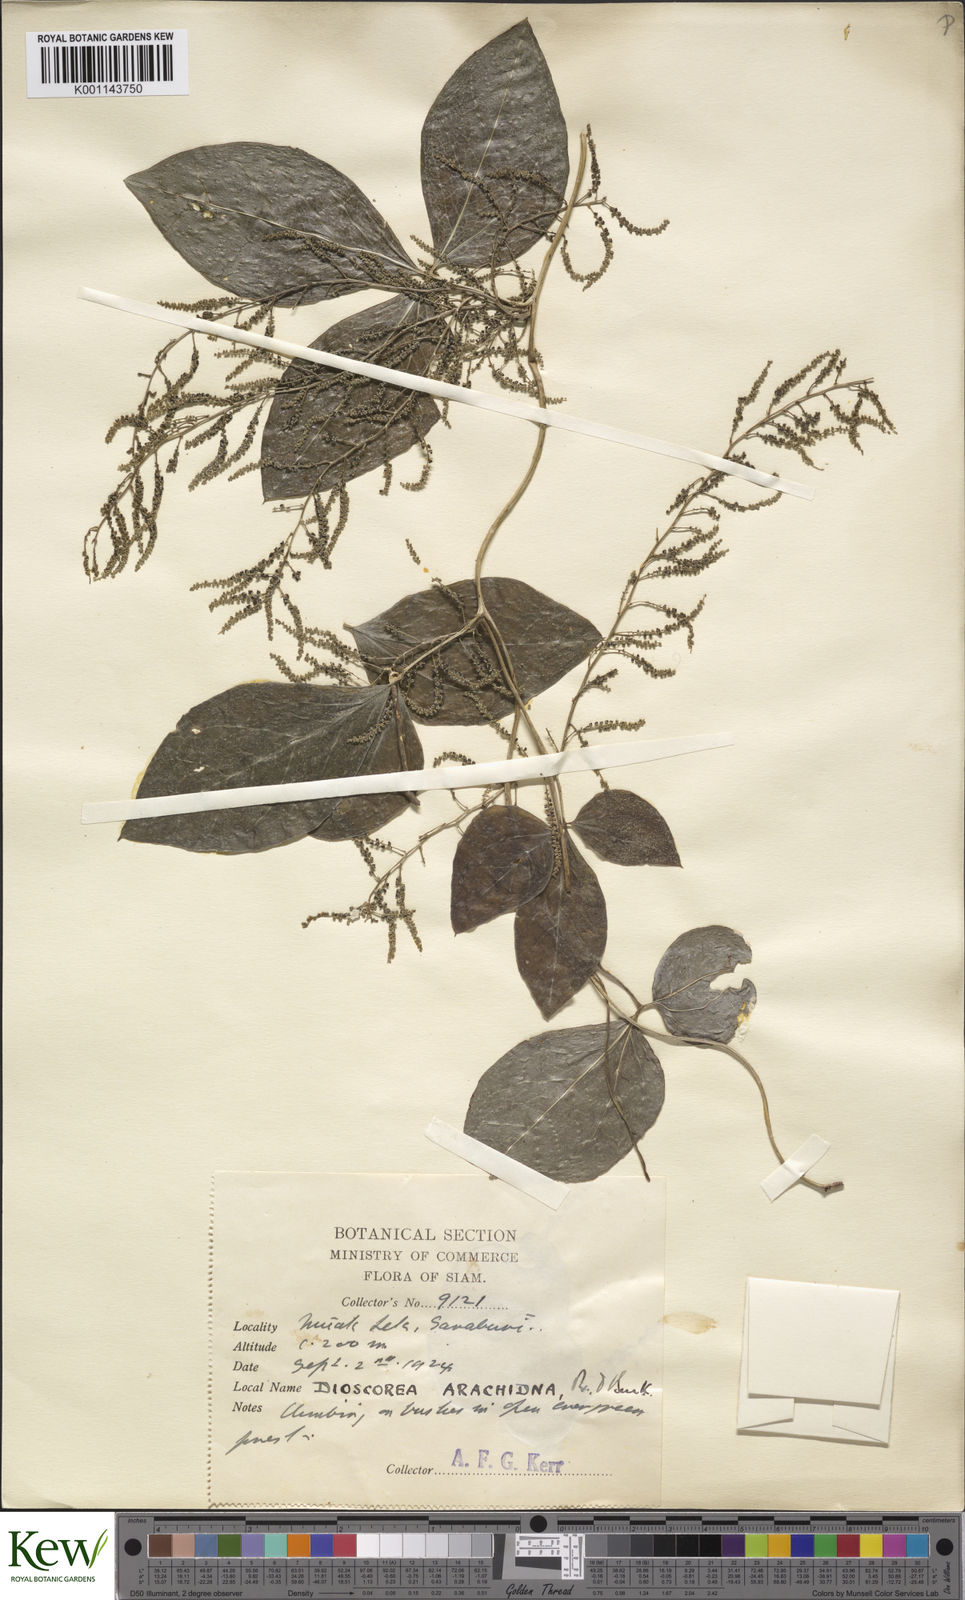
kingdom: Plantae
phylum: Tracheophyta
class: Liliopsida
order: Dioscoreales
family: Dioscoreaceae
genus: Dioscorea
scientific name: Dioscorea arachidna
